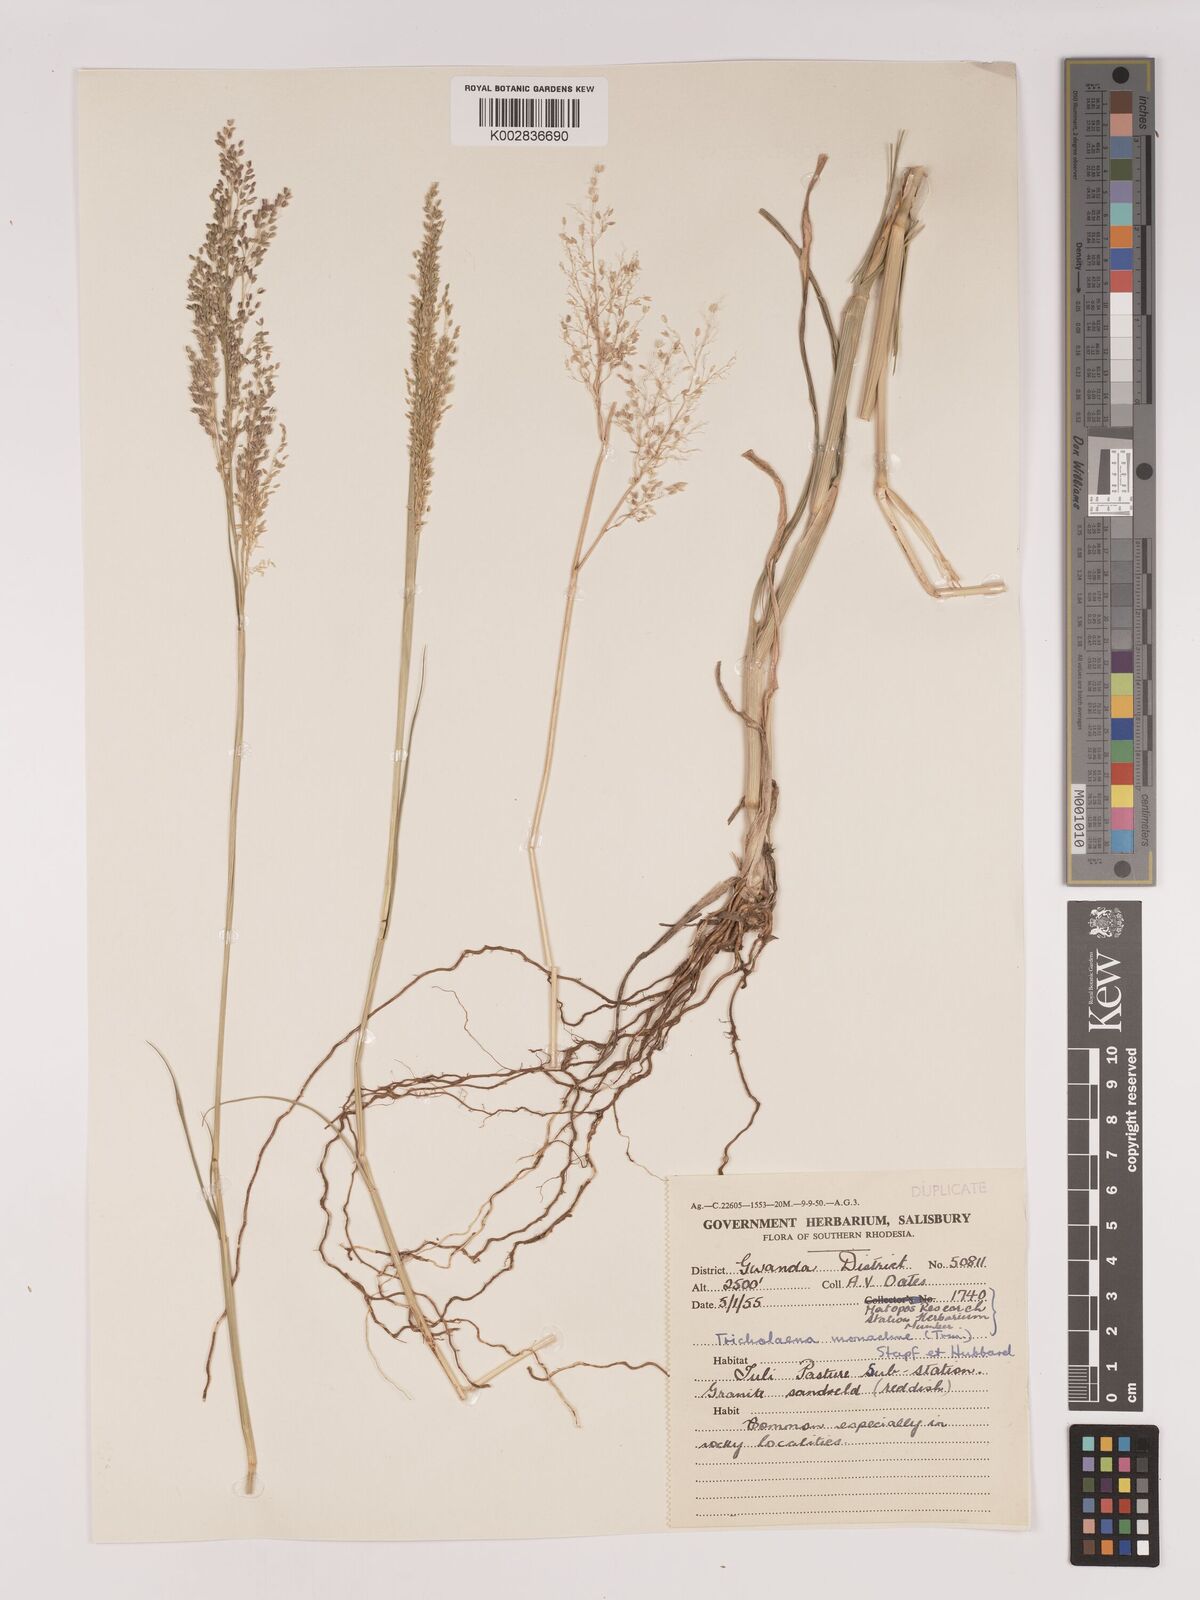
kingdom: Plantae
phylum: Tracheophyta
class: Liliopsida
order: Poales
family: Poaceae
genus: Tricholaena
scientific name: Tricholaena monachne
